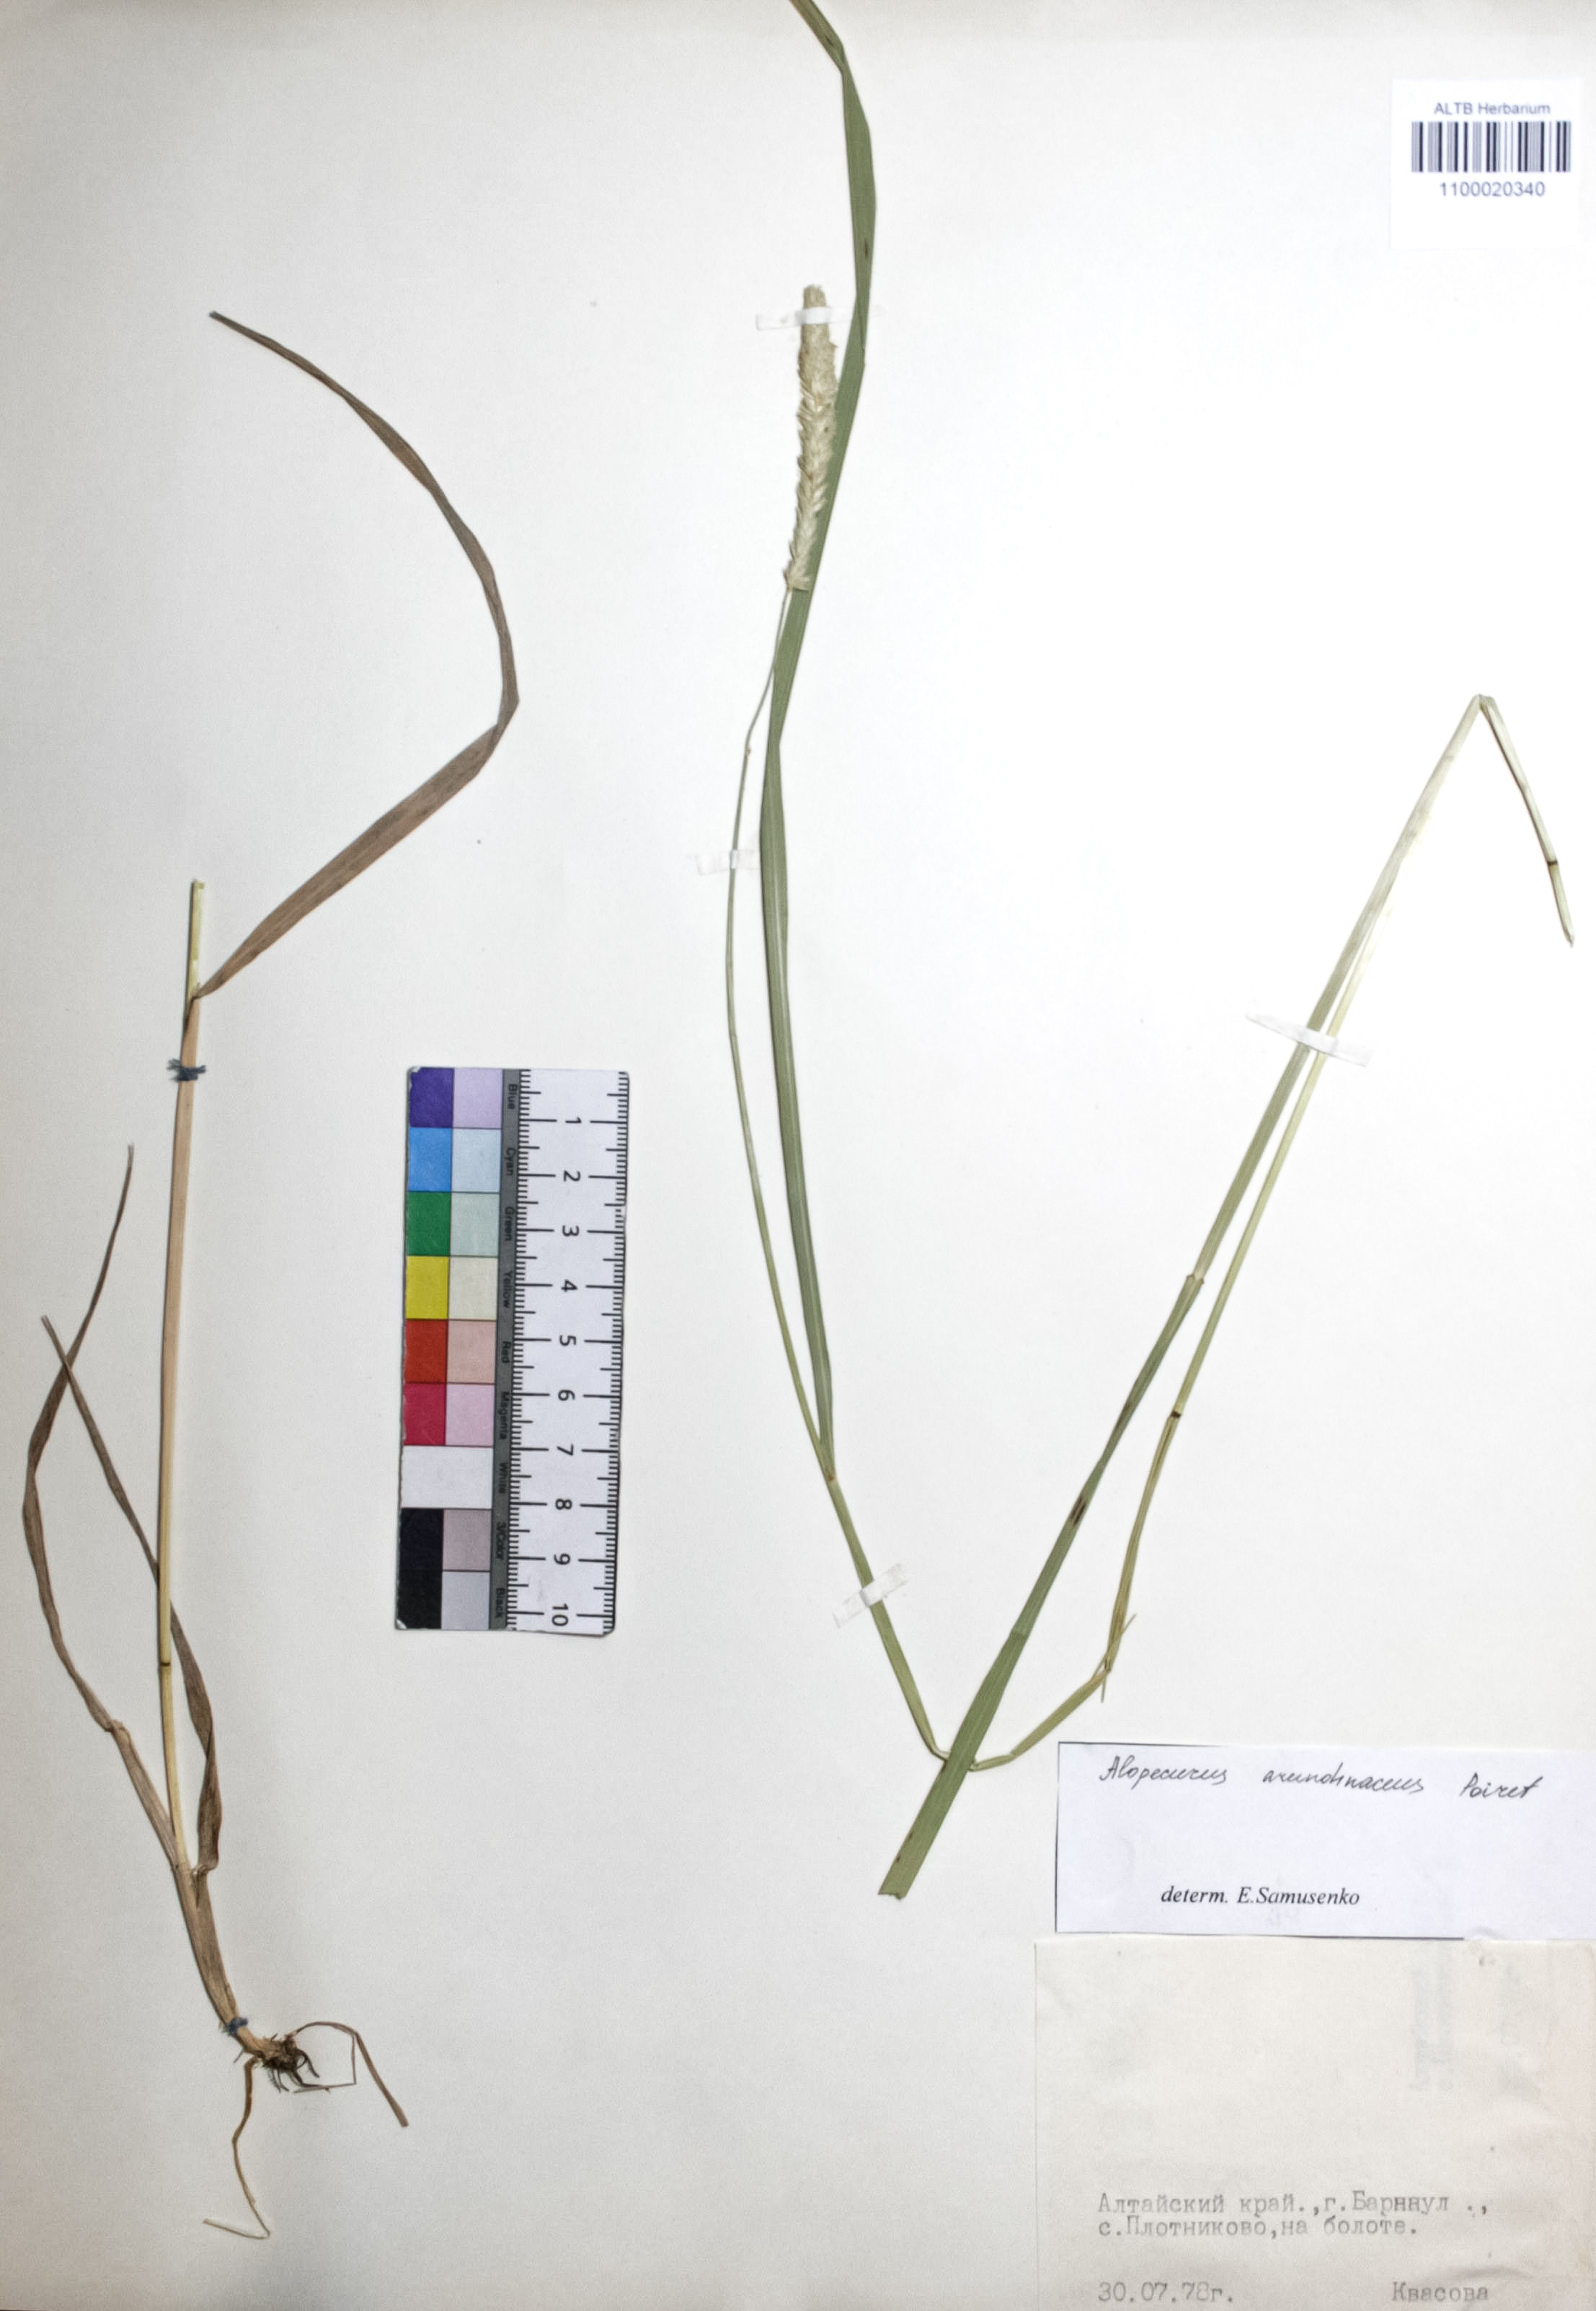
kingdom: Plantae
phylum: Tracheophyta
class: Liliopsida
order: Poales
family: Poaceae
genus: Alopecurus
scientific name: Alopecurus arundinaceus
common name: Creeping meadow foxtail
